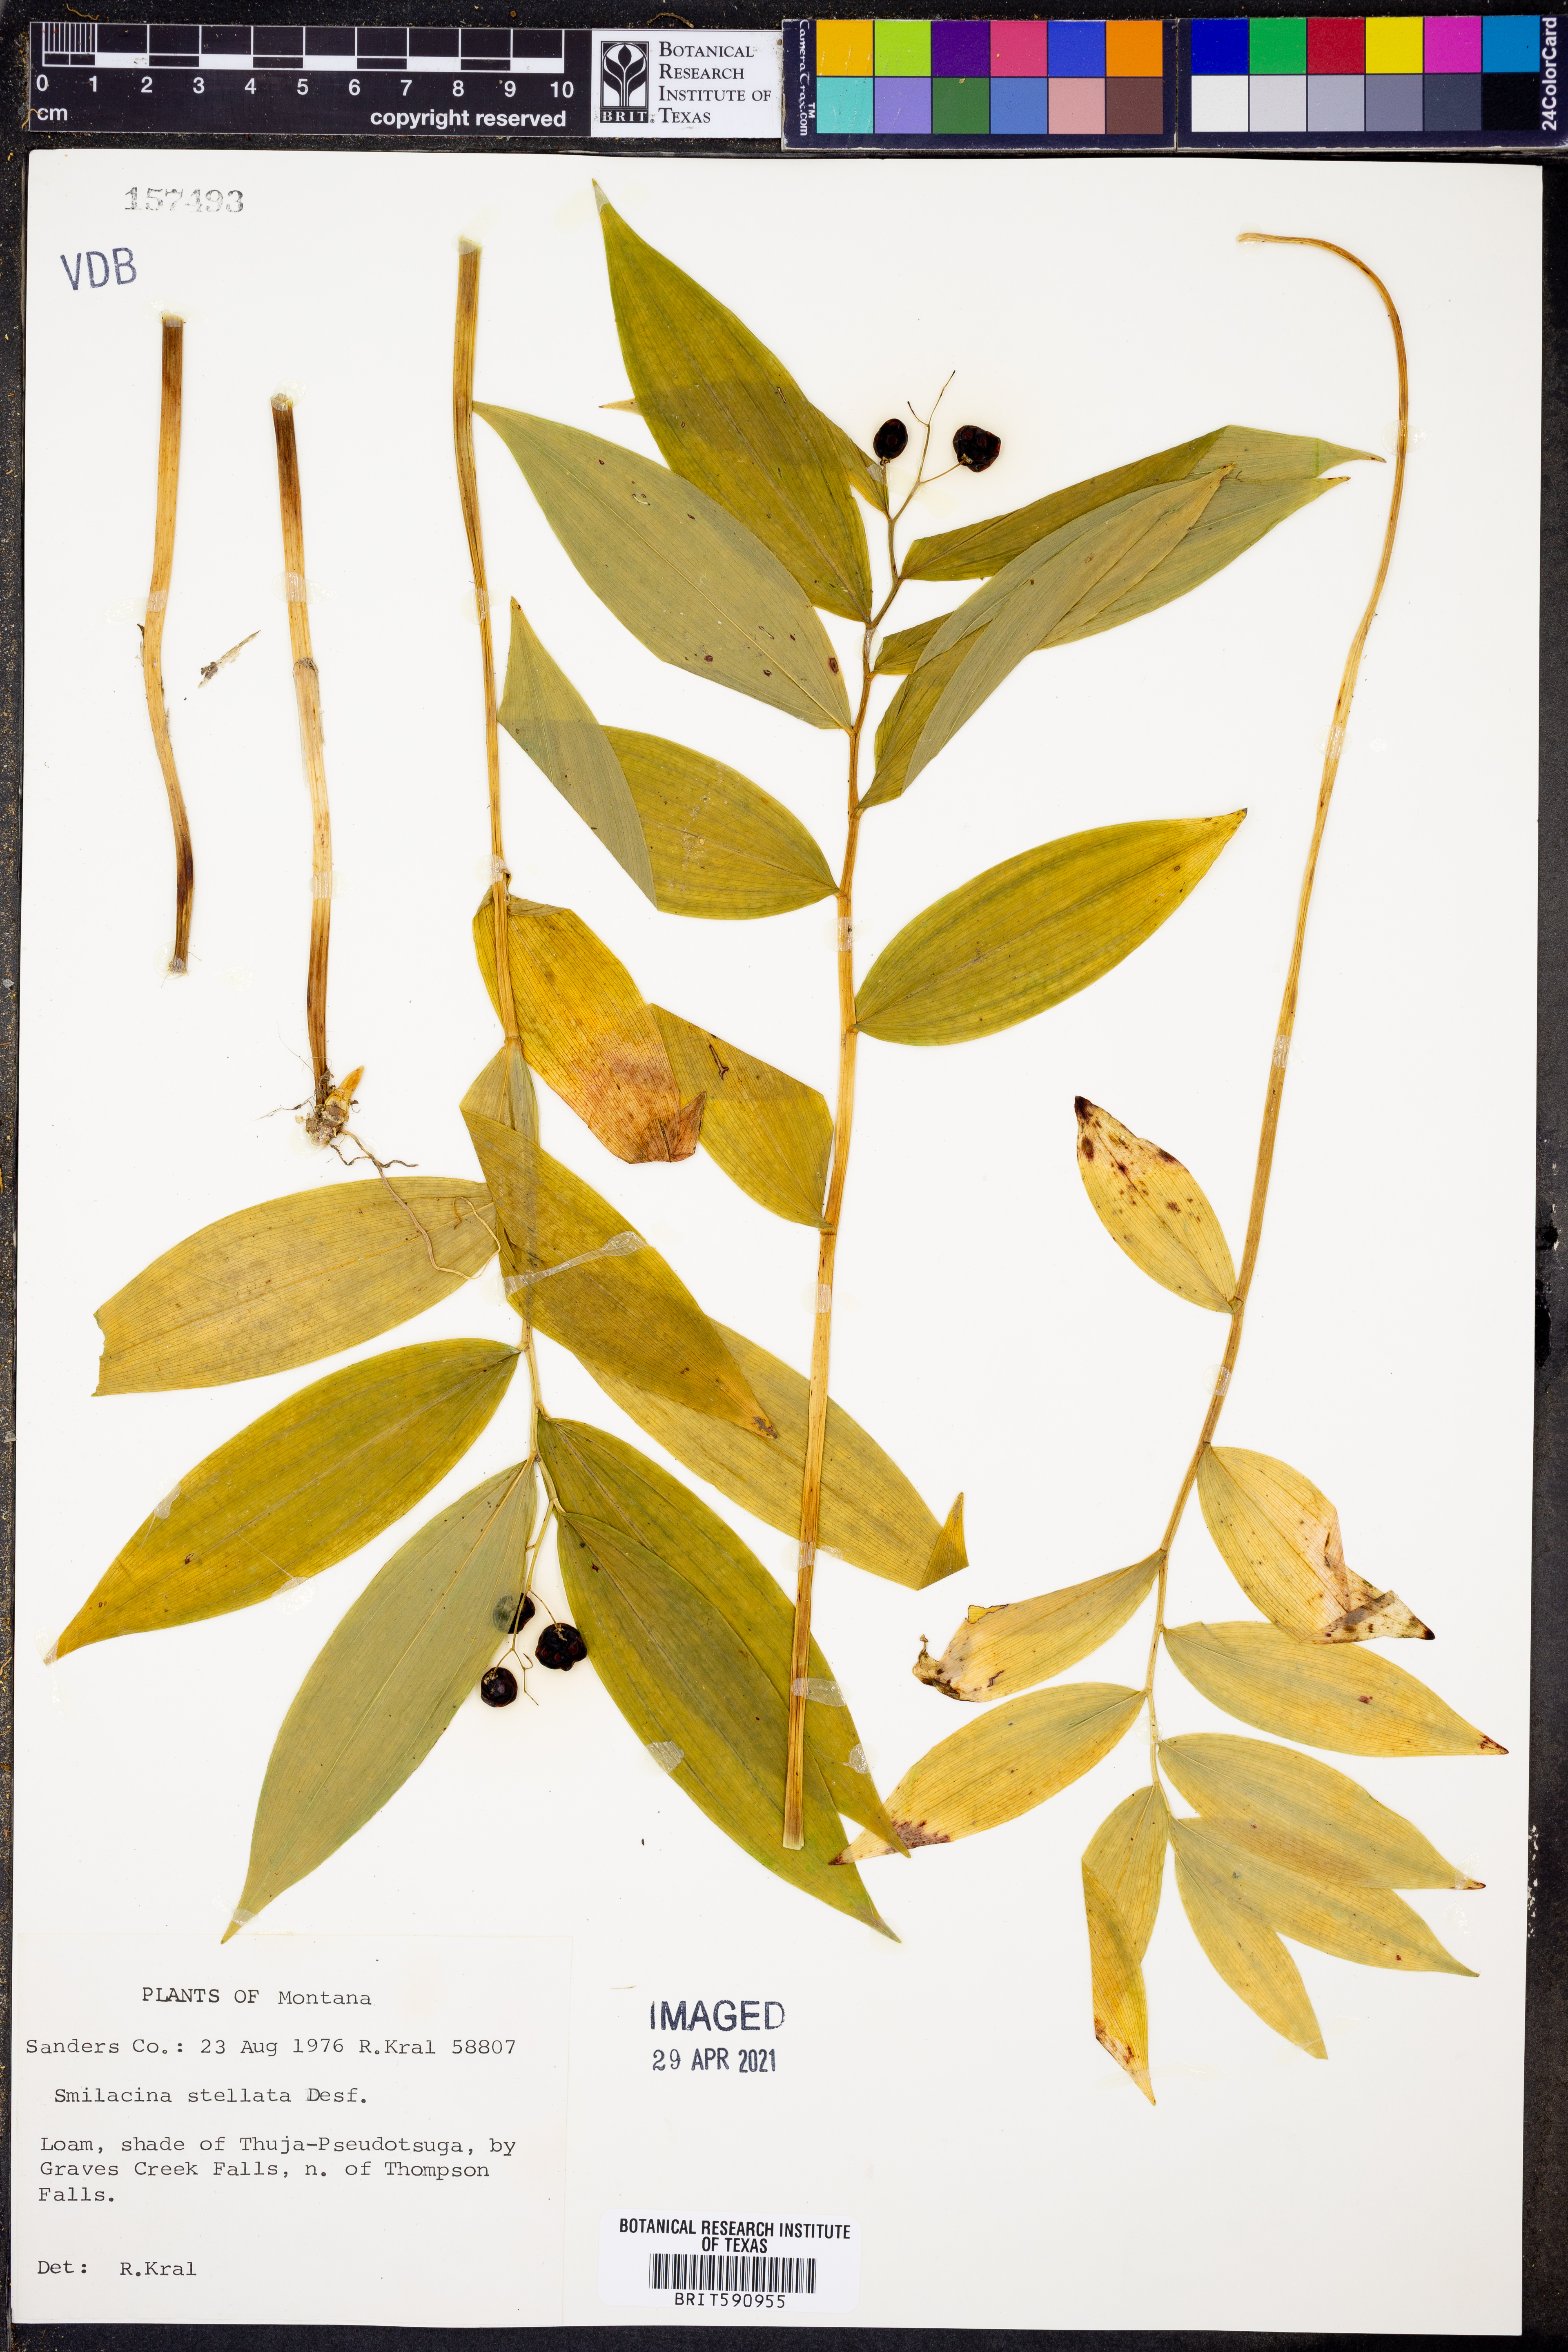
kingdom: Plantae
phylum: Tracheophyta
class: Liliopsida
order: Asparagales
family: Asparagaceae
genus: Maianthemum
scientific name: Maianthemum stellatum
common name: Little false solomon's seal
